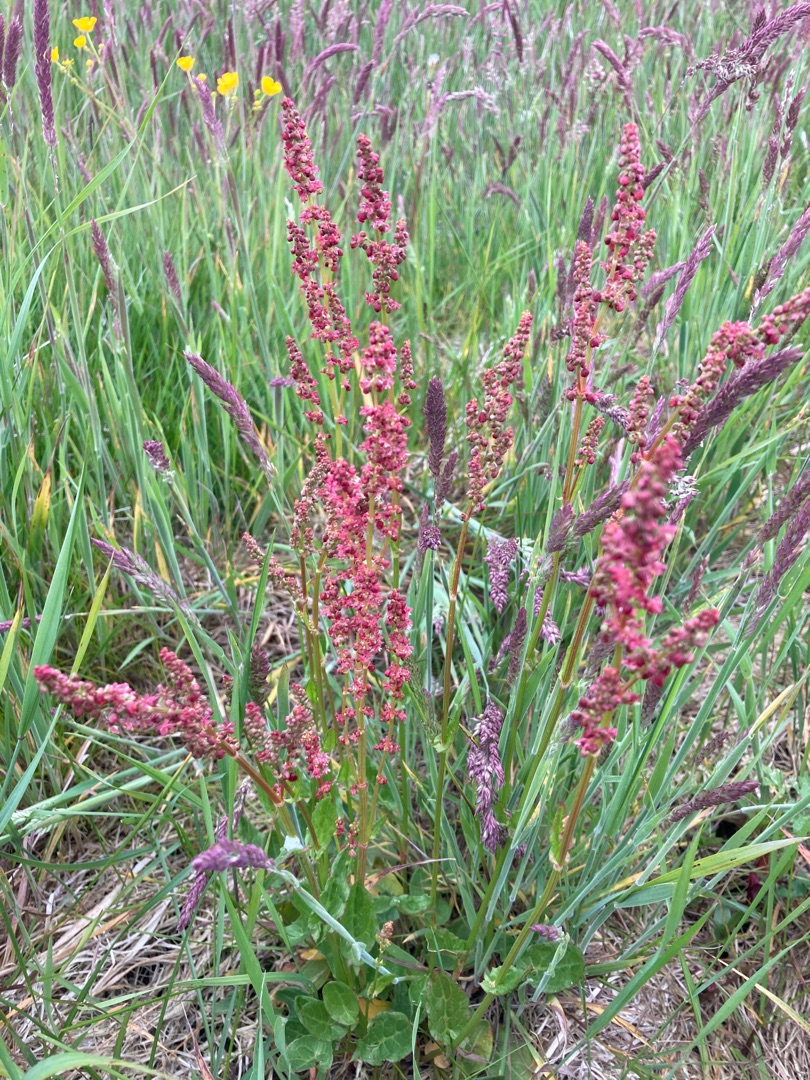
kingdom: Plantae
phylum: Tracheophyta
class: Magnoliopsida
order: Caryophyllales
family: Polygonaceae
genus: Rumex
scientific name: Rumex acetosa
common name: Almindelig syre
